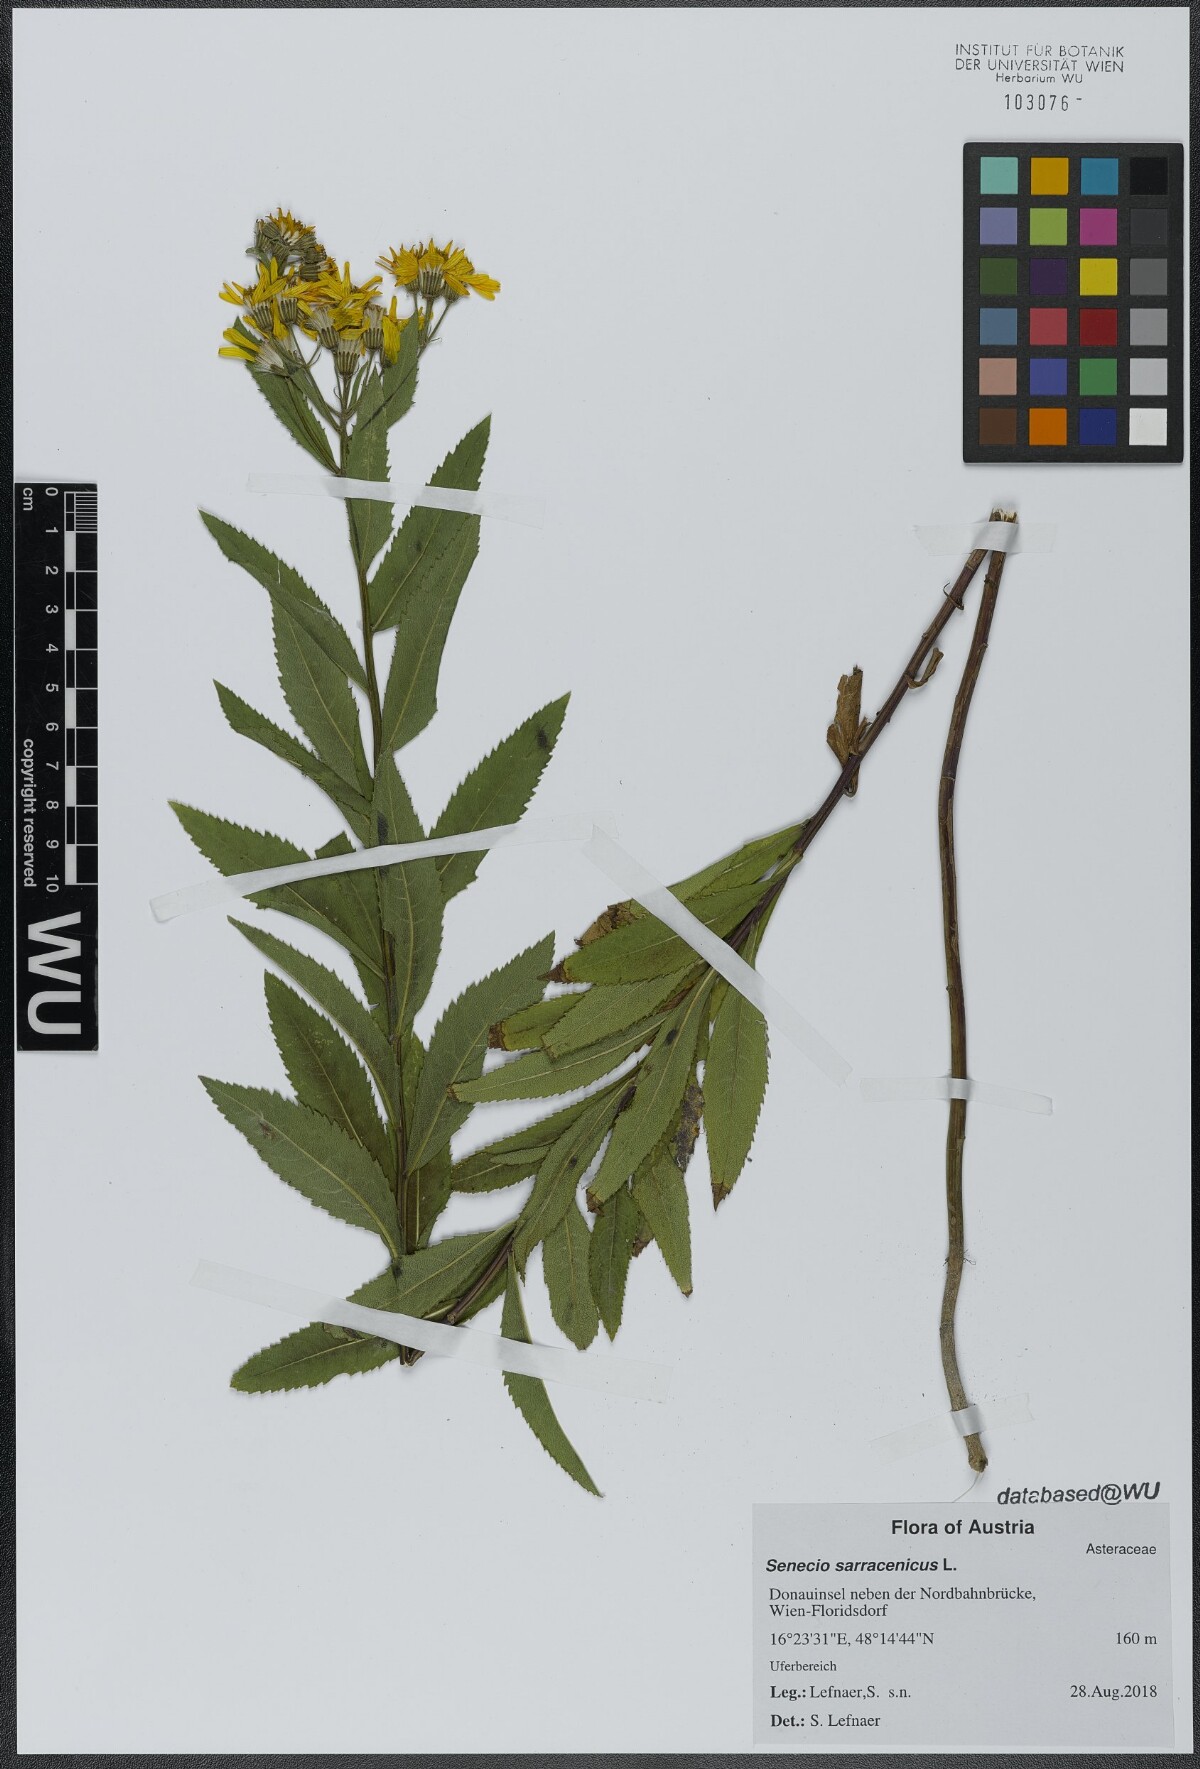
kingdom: Plantae
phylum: Tracheophyta
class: Magnoliopsida
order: Asterales
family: Asteraceae
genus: Senecio
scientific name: Senecio sarracenicus
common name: Broad-leaved ragwort
